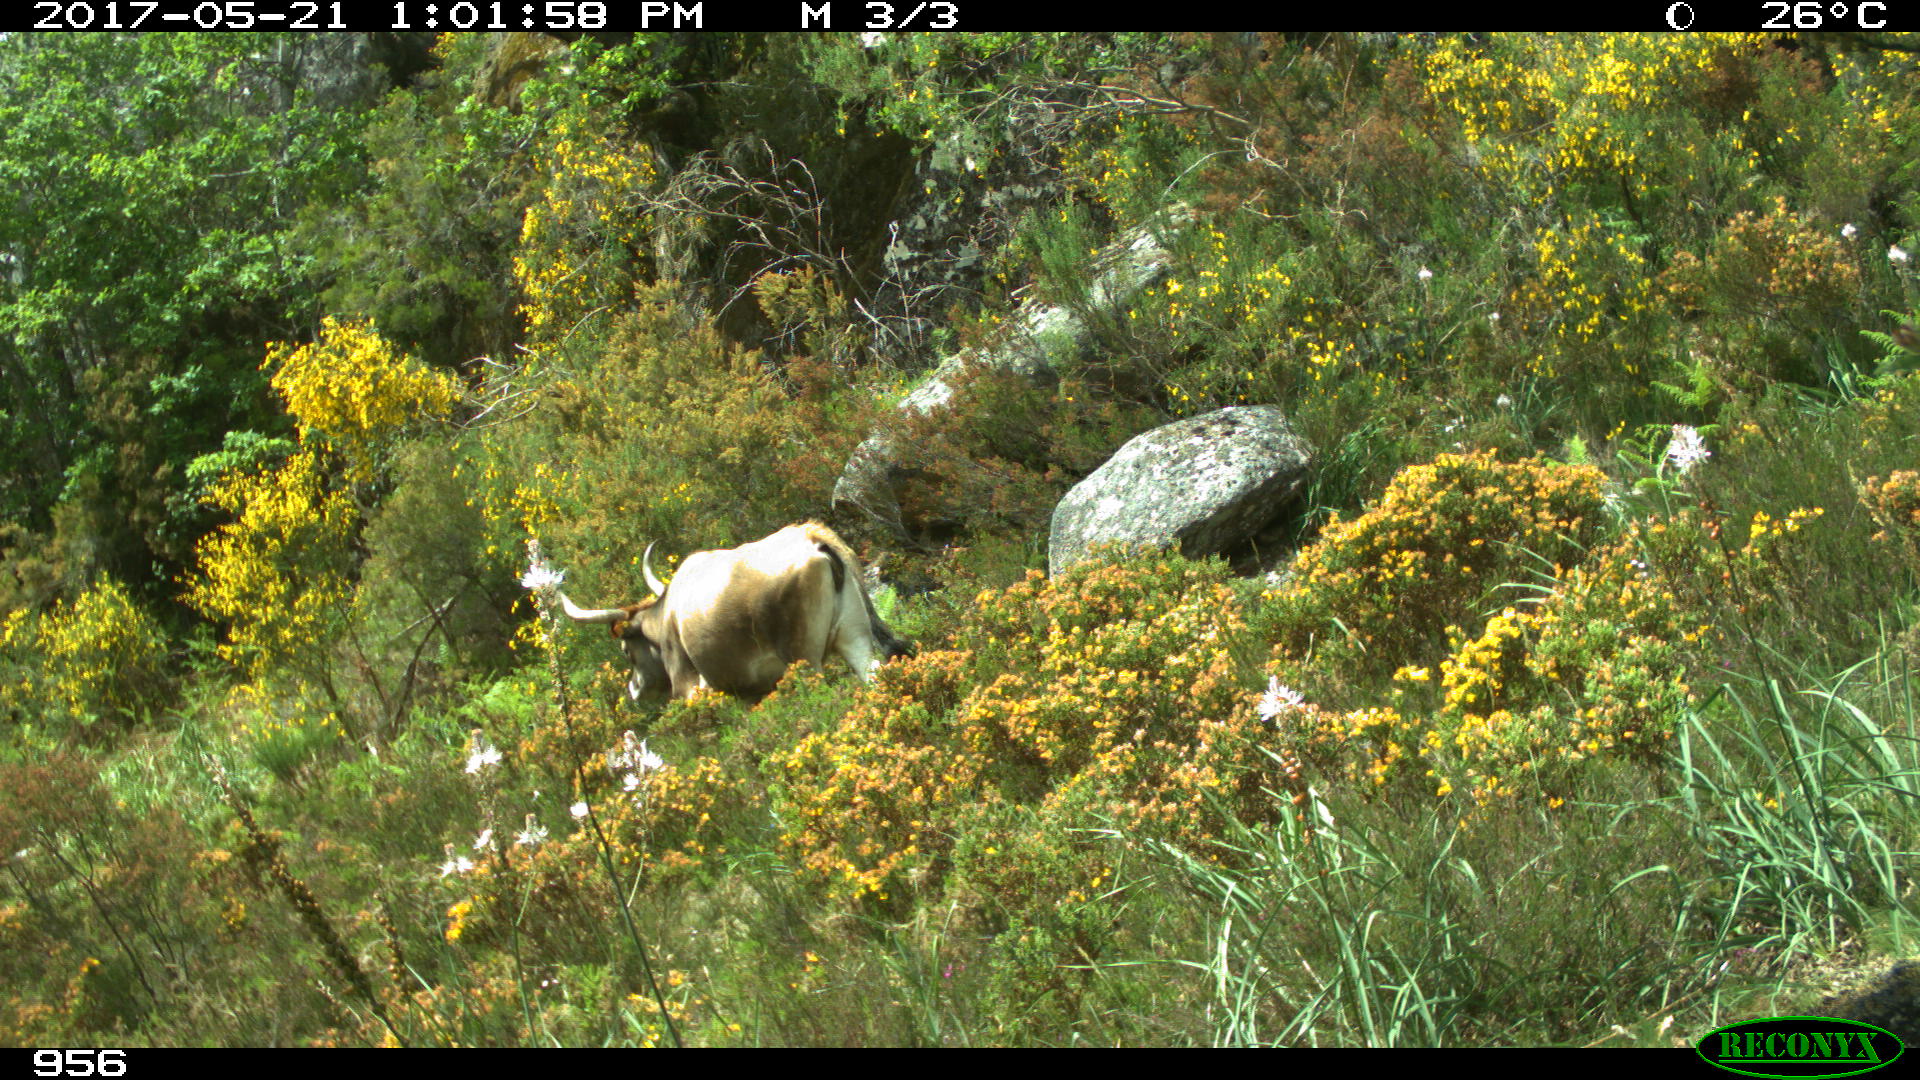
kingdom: Animalia
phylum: Chordata
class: Mammalia
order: Artiodactyla
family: Bovidae
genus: Bos
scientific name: Bos taurus
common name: Domesticated cattle
